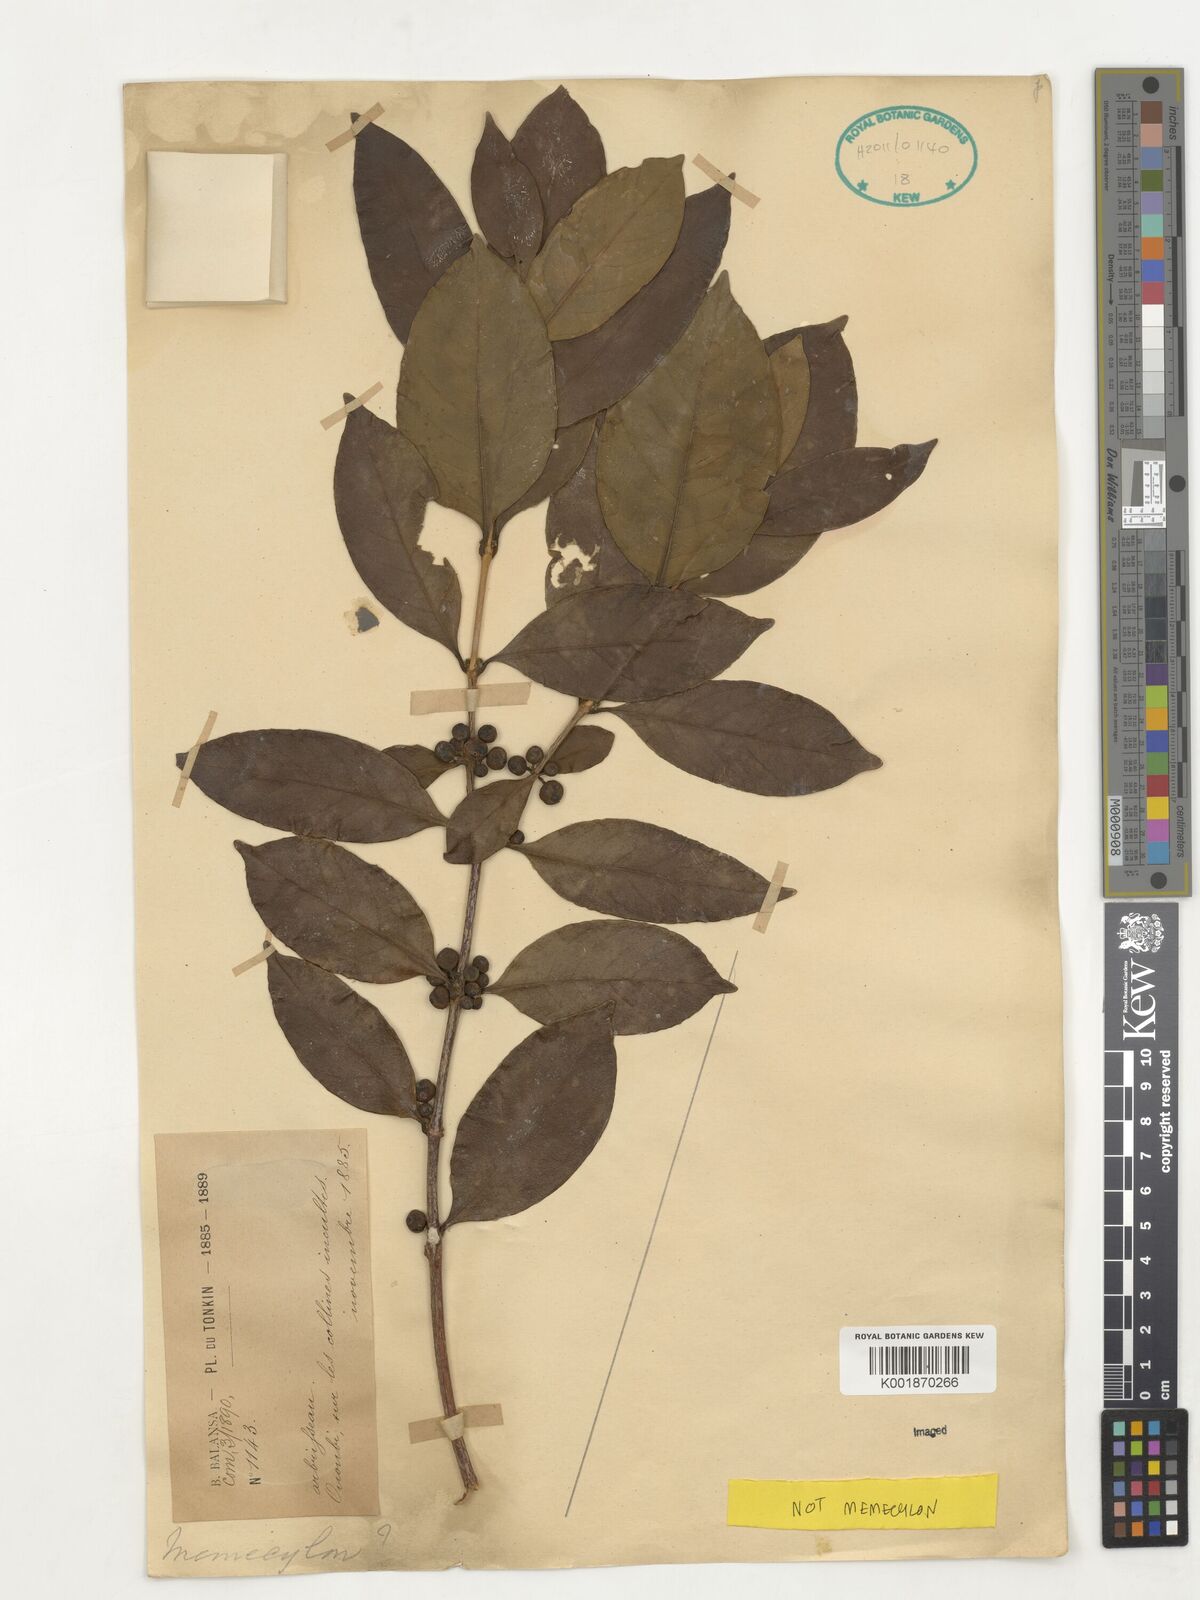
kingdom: Plantae
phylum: Tracheophyta
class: Magnoliopsida
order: Myrtales
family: Melastomataceae
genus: Memecylon
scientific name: Memecylon
